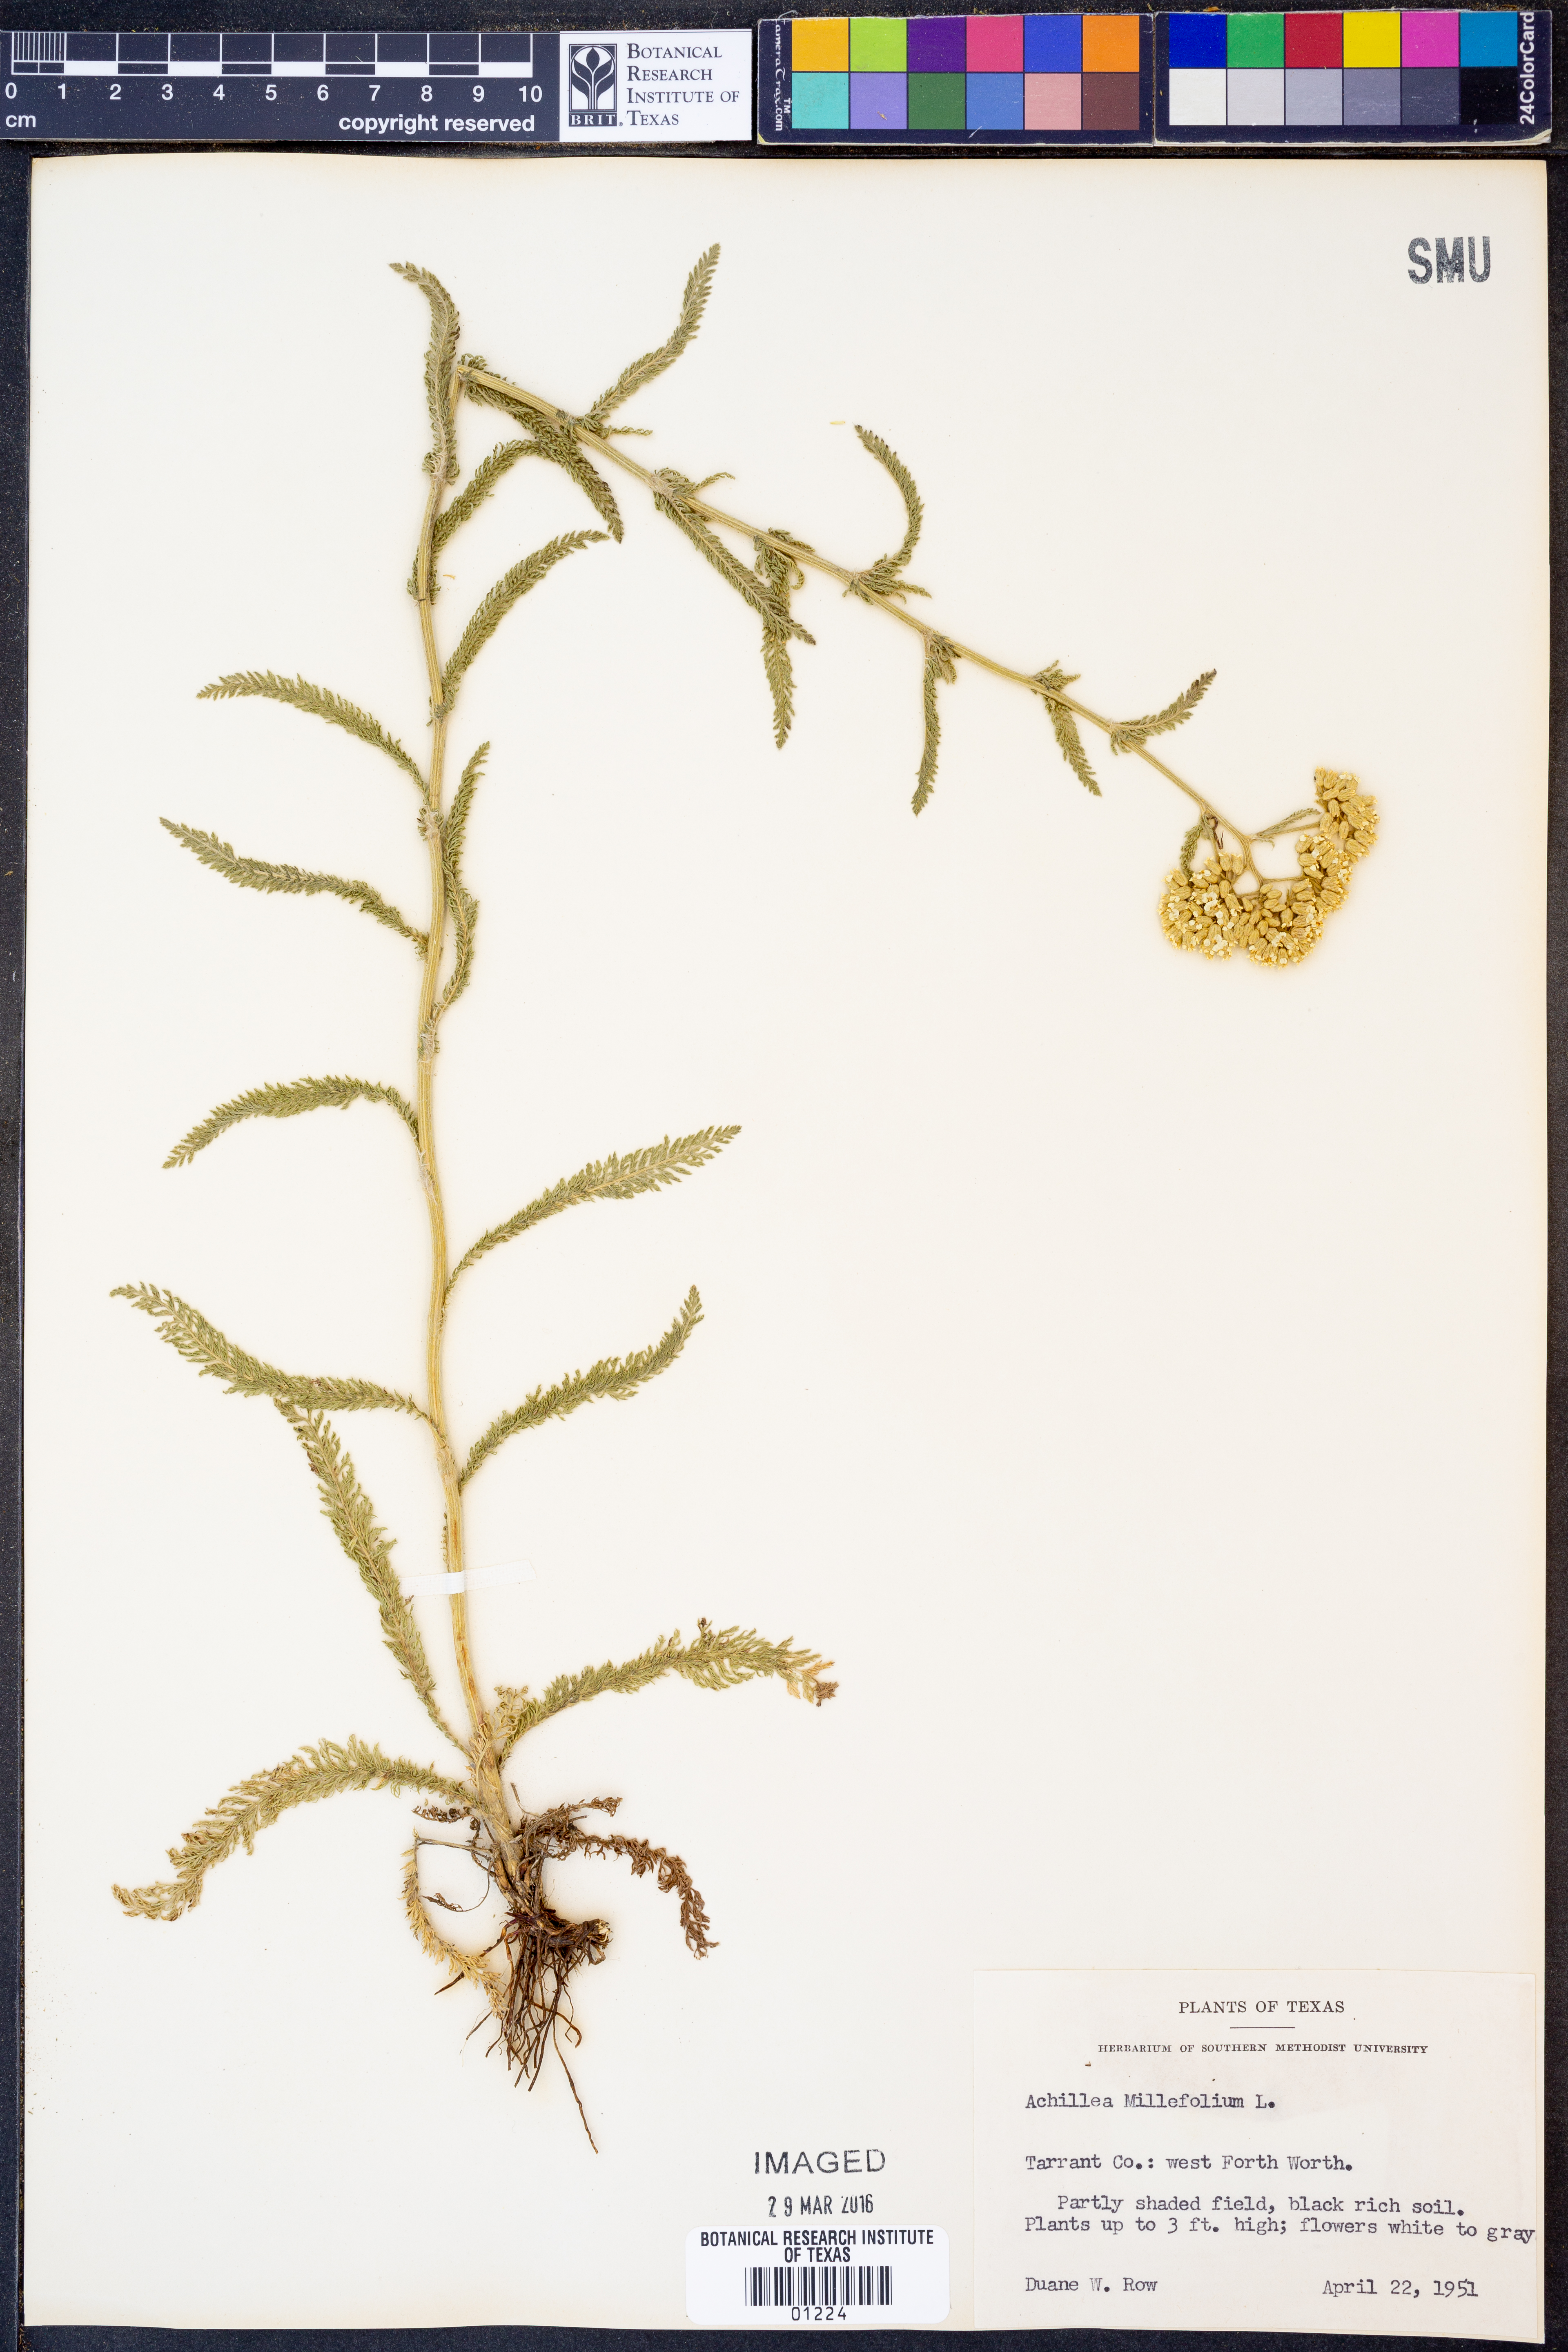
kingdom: Plantae
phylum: Tracheophyta
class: Magnoliopsida
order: Asterales
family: Asteraceae
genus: Achillea
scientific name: Achillea millefolium
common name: Yarrow
